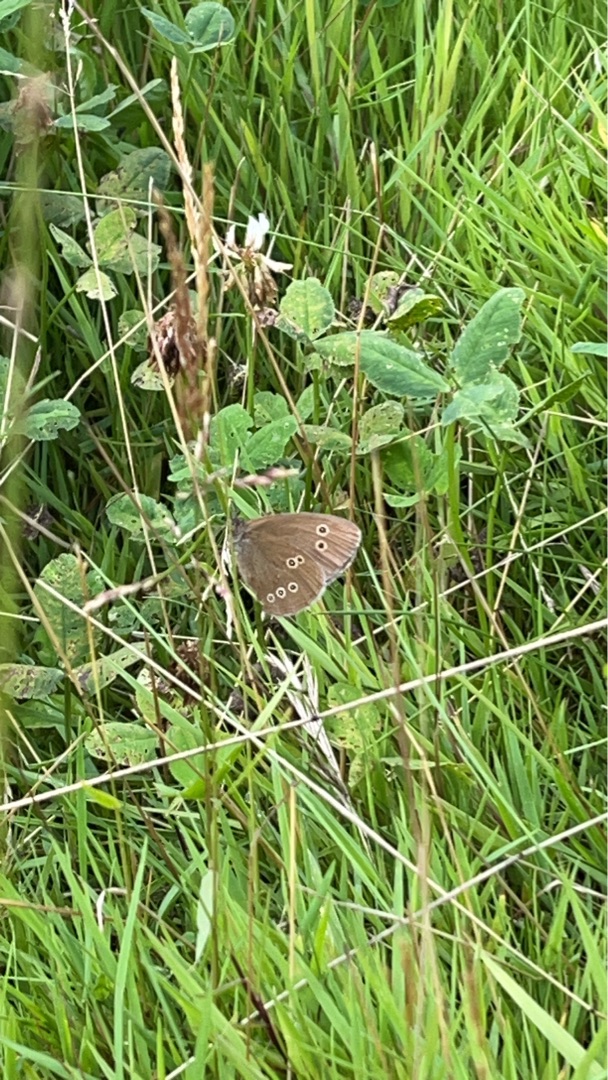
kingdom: Animalia
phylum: Arthropoda
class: Insecta
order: Lepidoptera
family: Nymphalidae
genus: Aphantopus
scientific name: Aphantopus hyperantus
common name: Engrandøje
